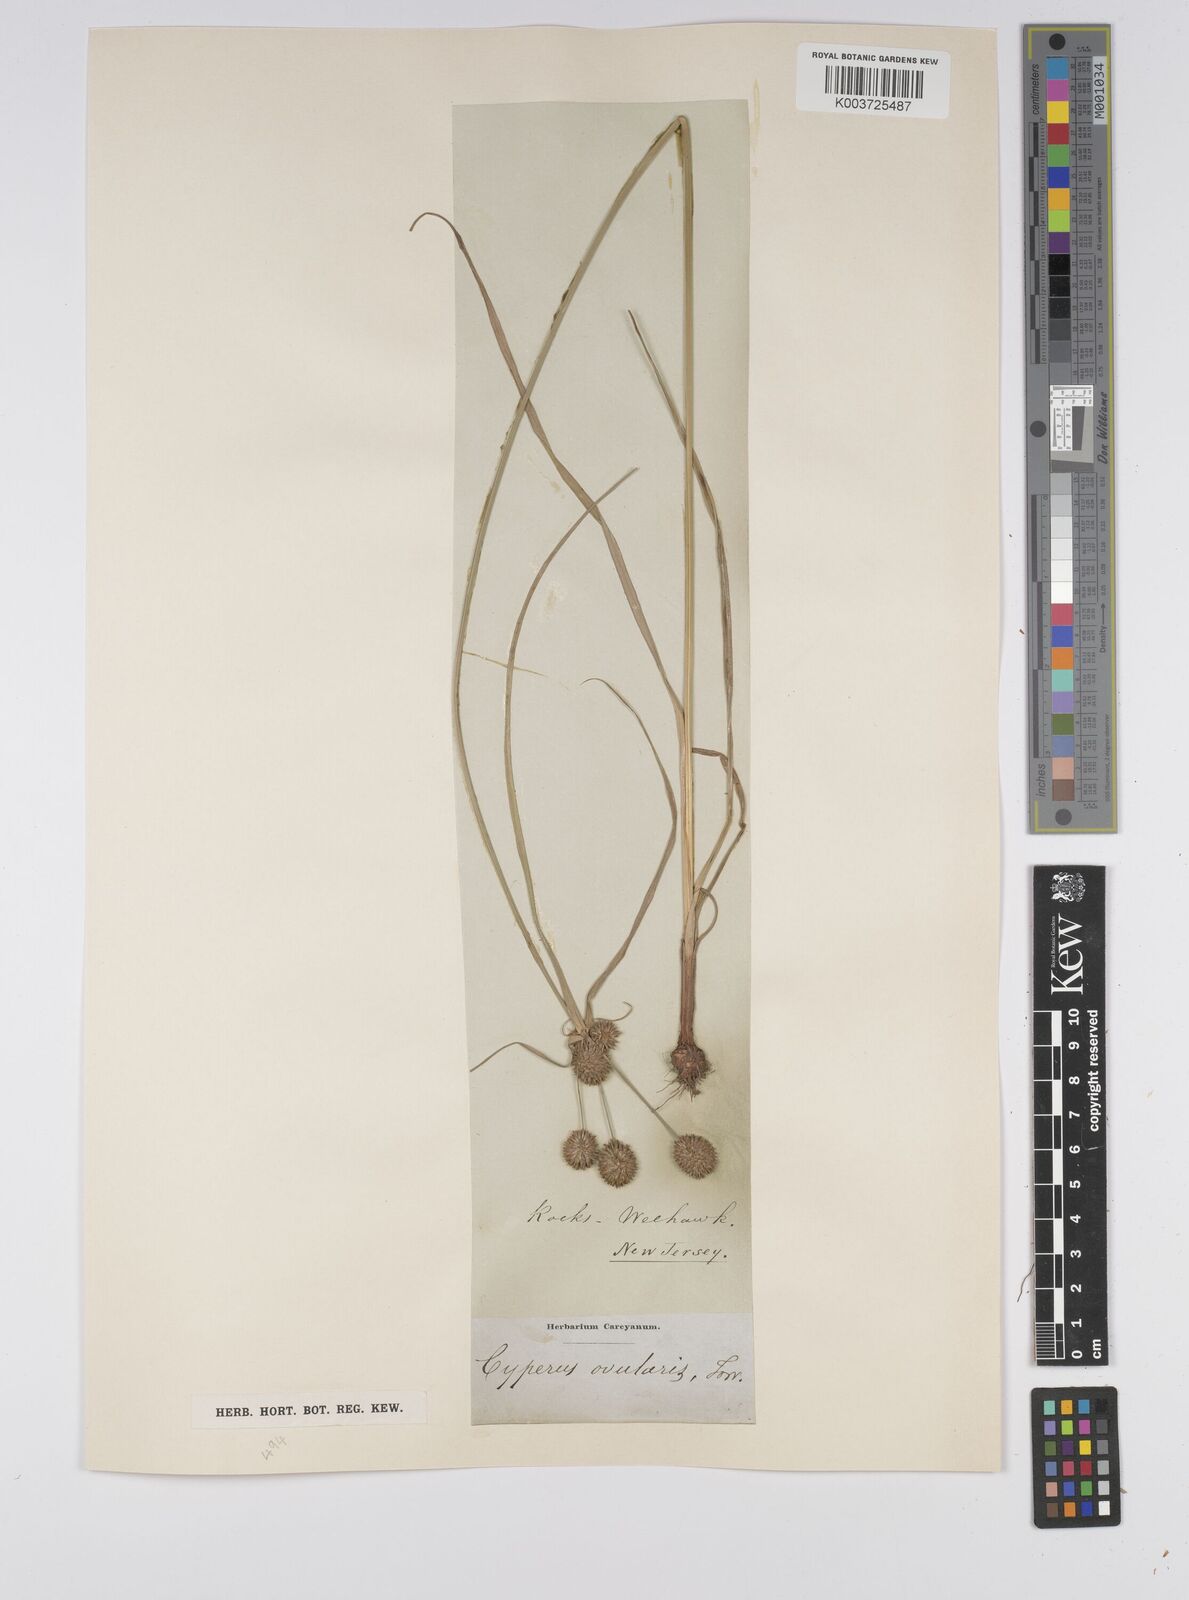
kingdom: Plantae
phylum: Tracheophyta
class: Liliopsida
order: Poales
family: Cyperaceae
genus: Cyperus
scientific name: Cyperus echinatus
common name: Teasel sedge
